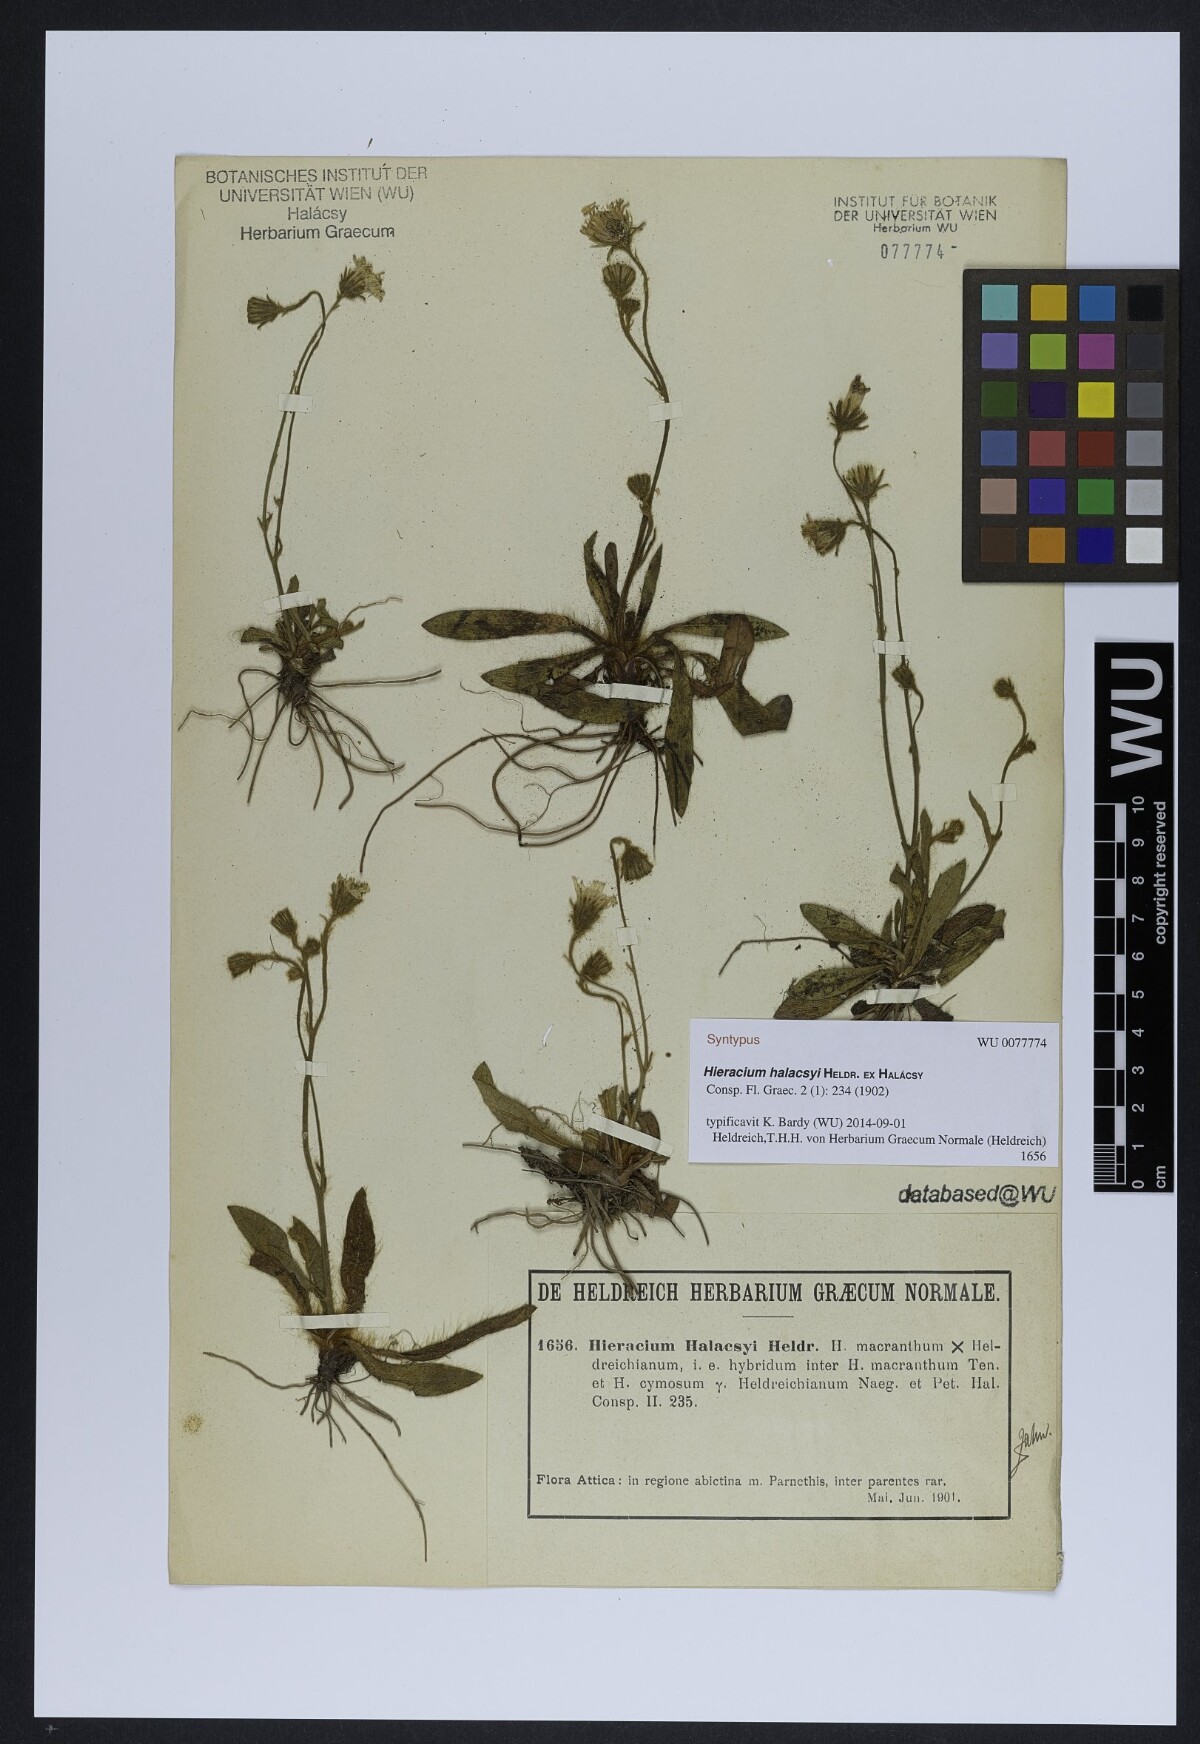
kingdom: Plantae
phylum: Tracheophyta
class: Magnoliopsida
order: Asterales
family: Asteraceae
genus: Pilosella
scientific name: Pilosella halacsyi
